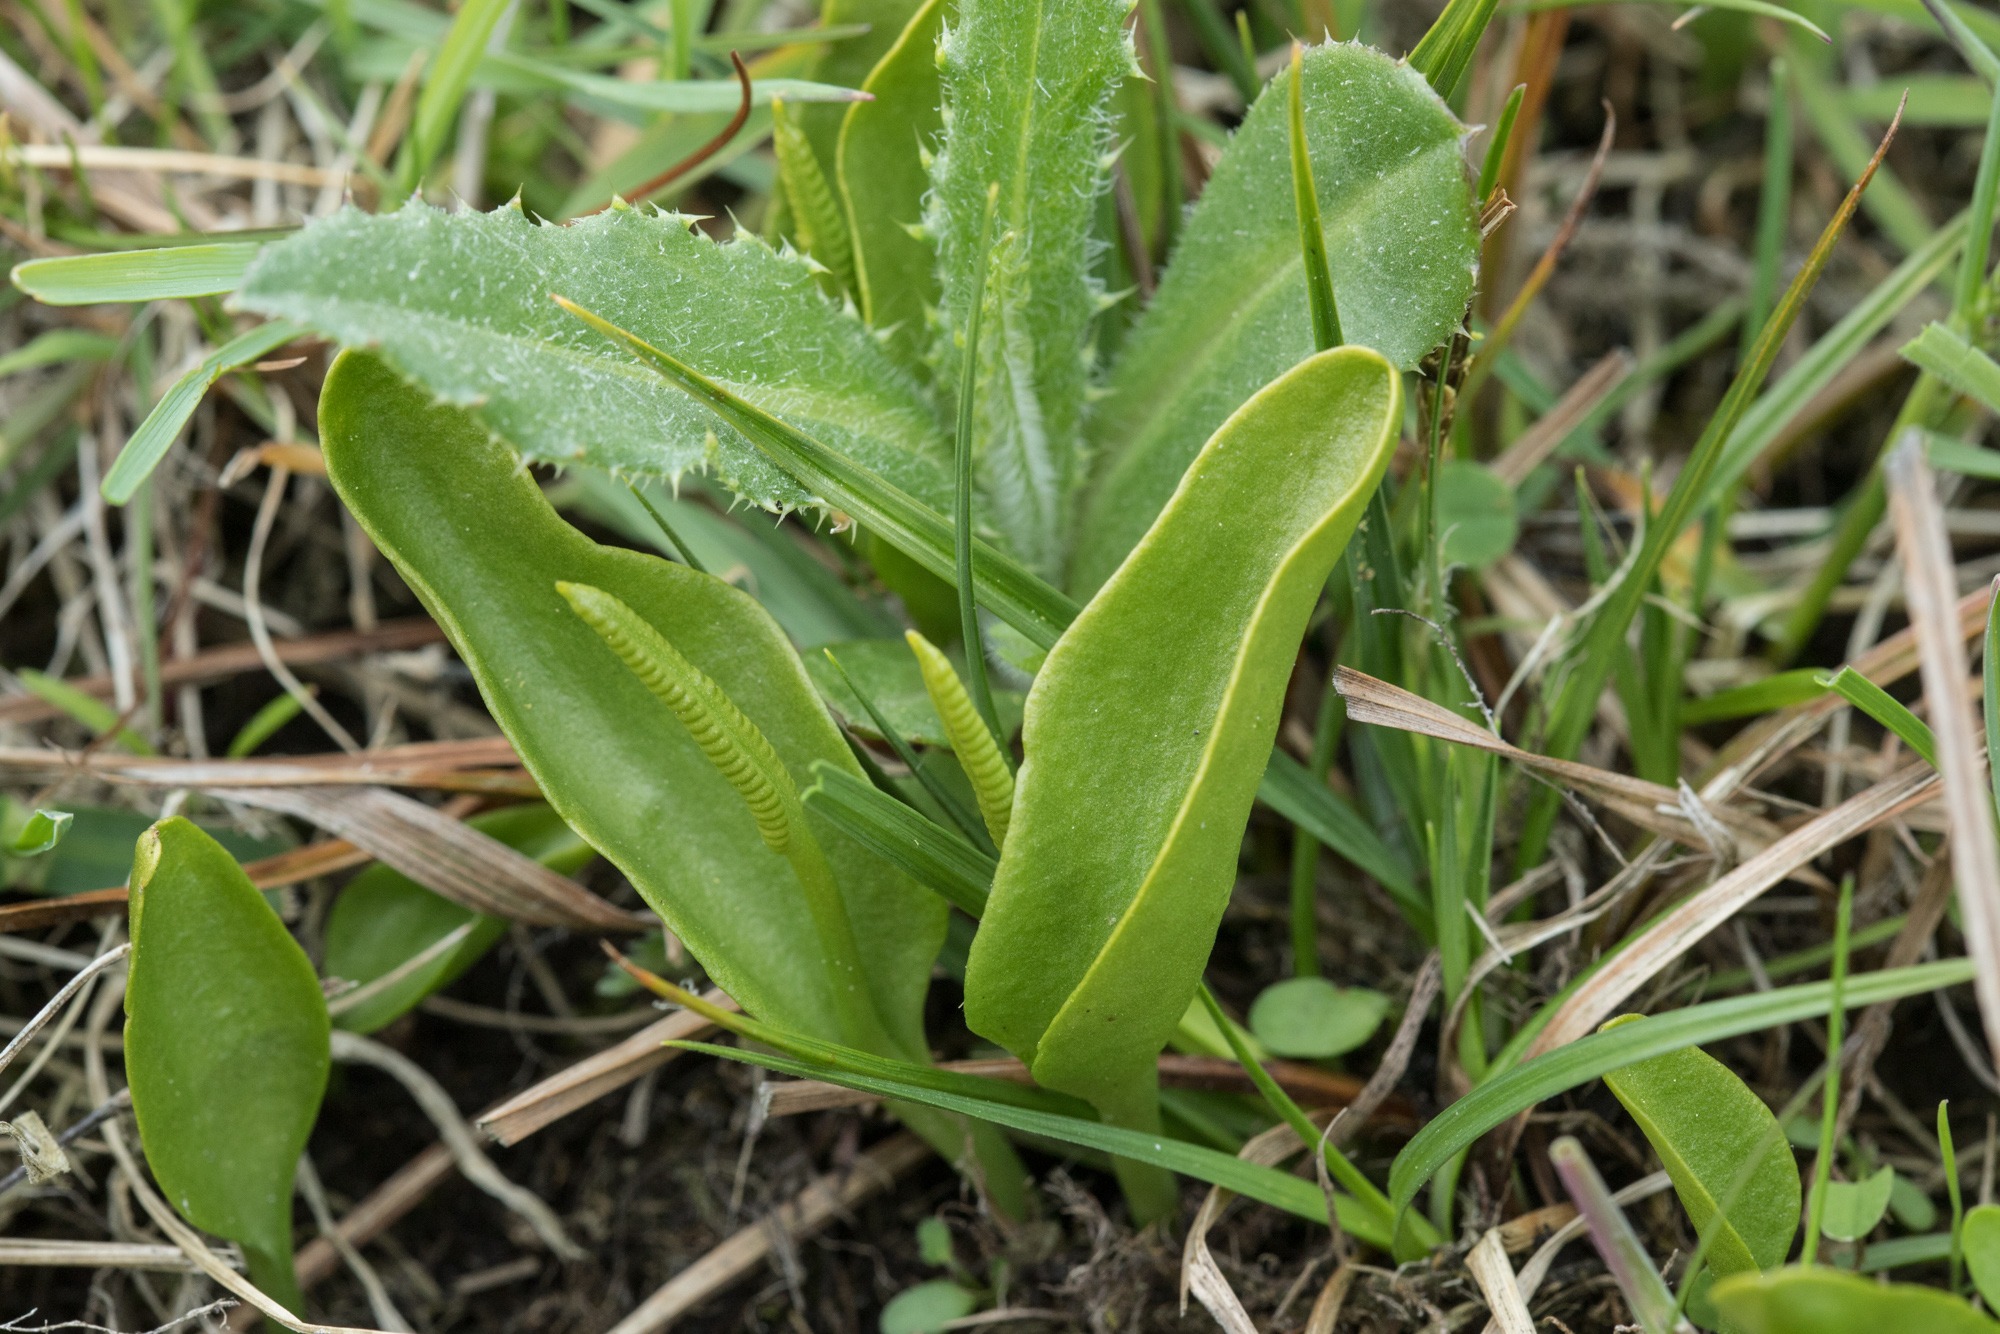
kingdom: Plantae
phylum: Tracheophyta
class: Polypodiopsida
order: Ophioglossales
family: Ophioglossaceae
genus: Ophioglossum
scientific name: Ophioglossum vulgatum
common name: Slangetunge
